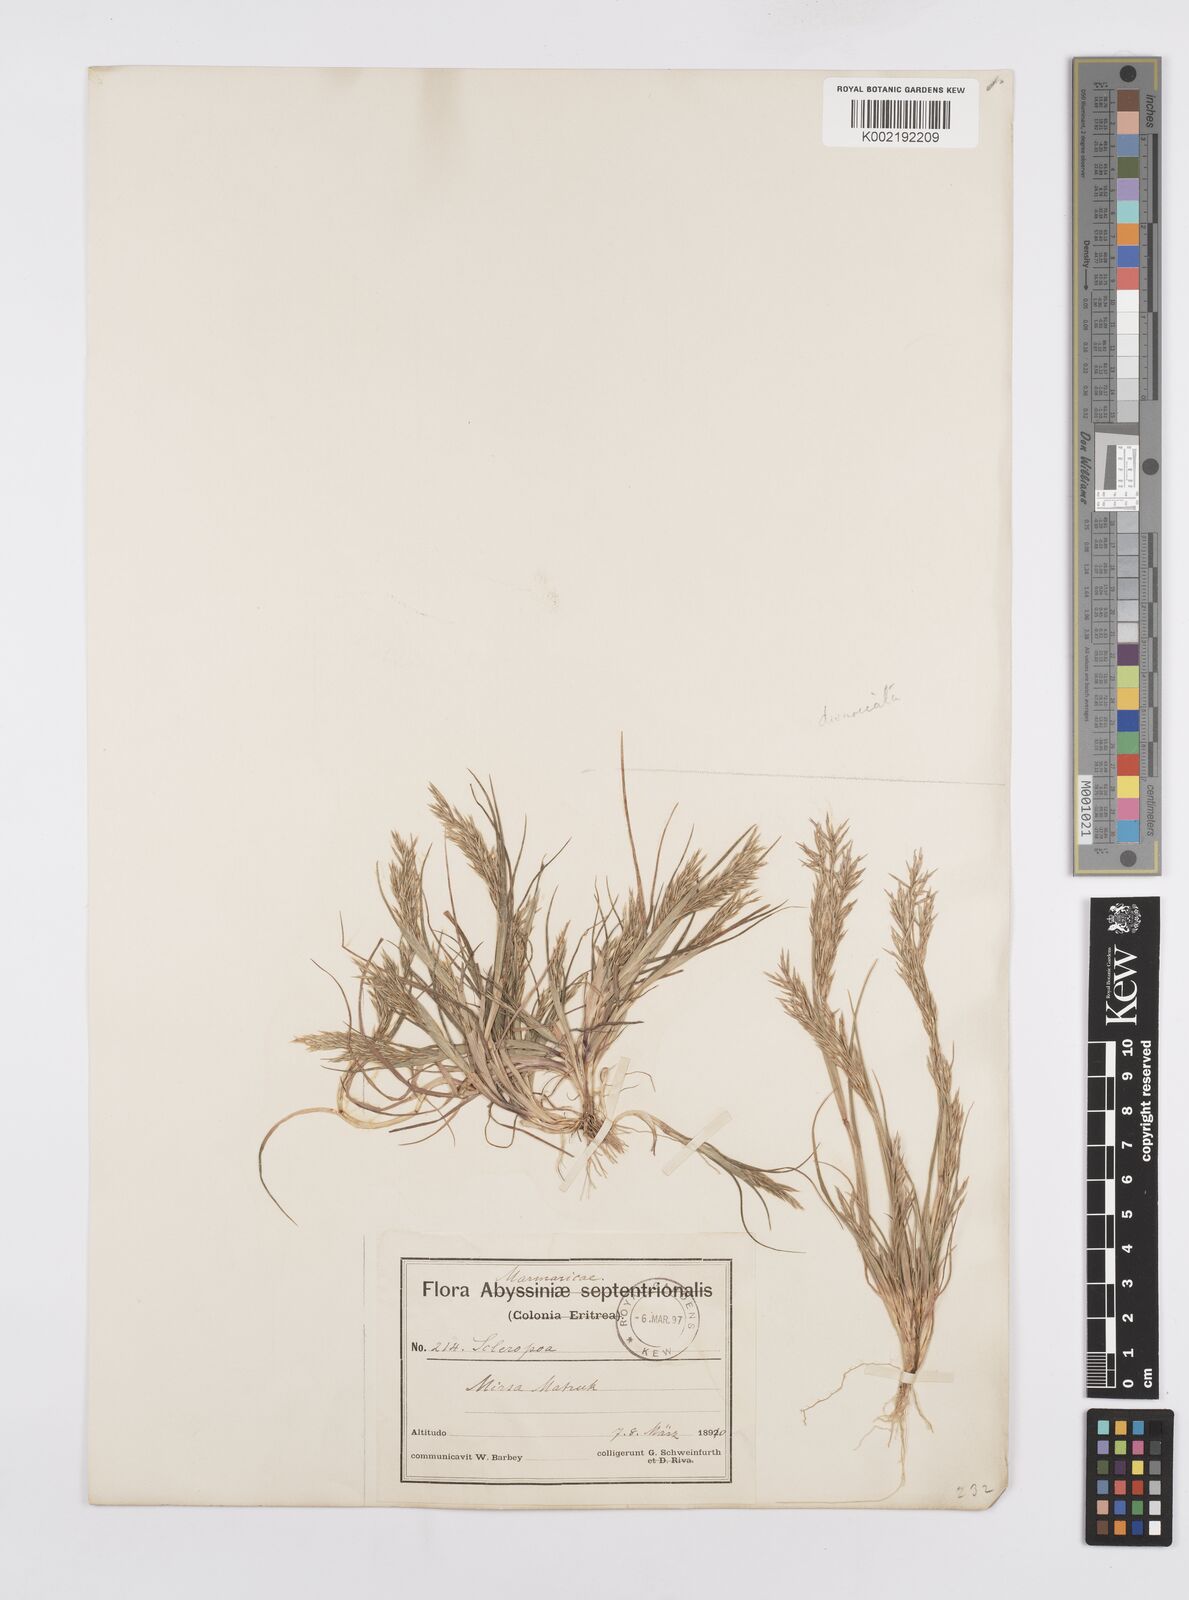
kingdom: Plantae
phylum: Tracheophyta
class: Liliopsida
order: Poales
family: Poaceae
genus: Cutandia
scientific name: Cutandia divaricata
